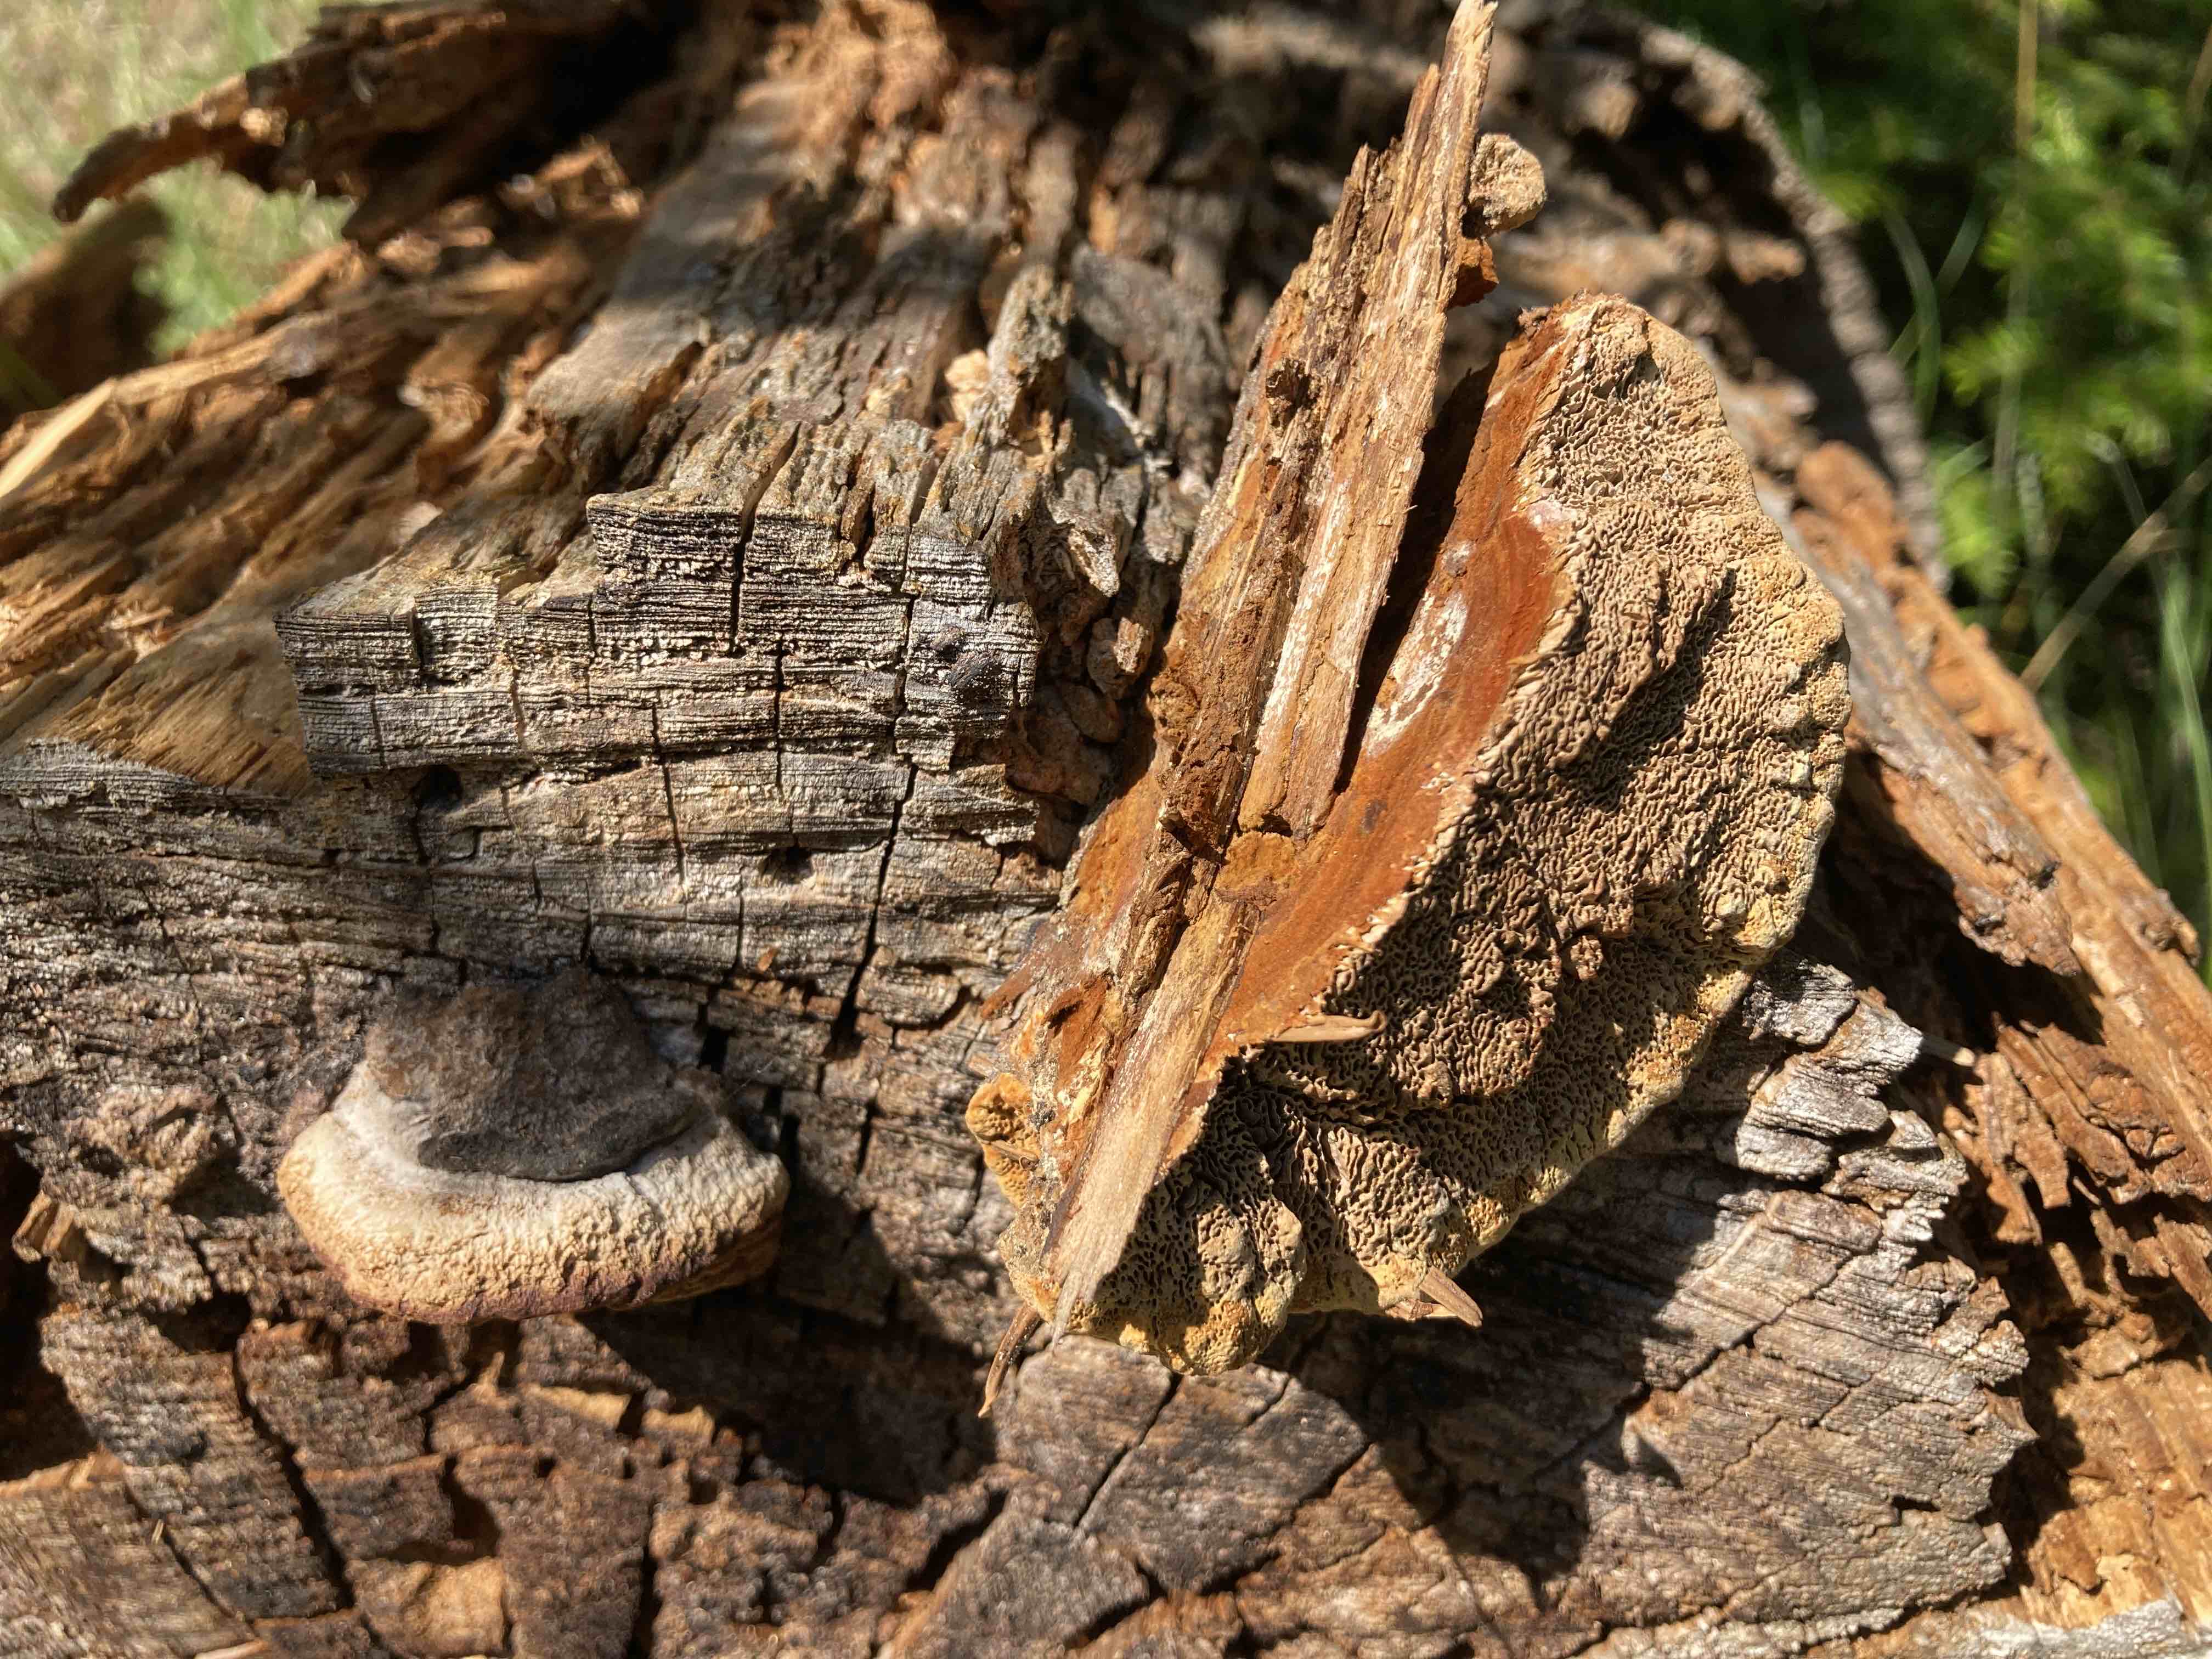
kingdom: Fungi
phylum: Basidiomycota
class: Agaricomycetes
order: Gloeophyllales
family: Gloeophyllaceae
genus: Gloeophyllum
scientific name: Gloeophyllum odoratum
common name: duftende korkhat
